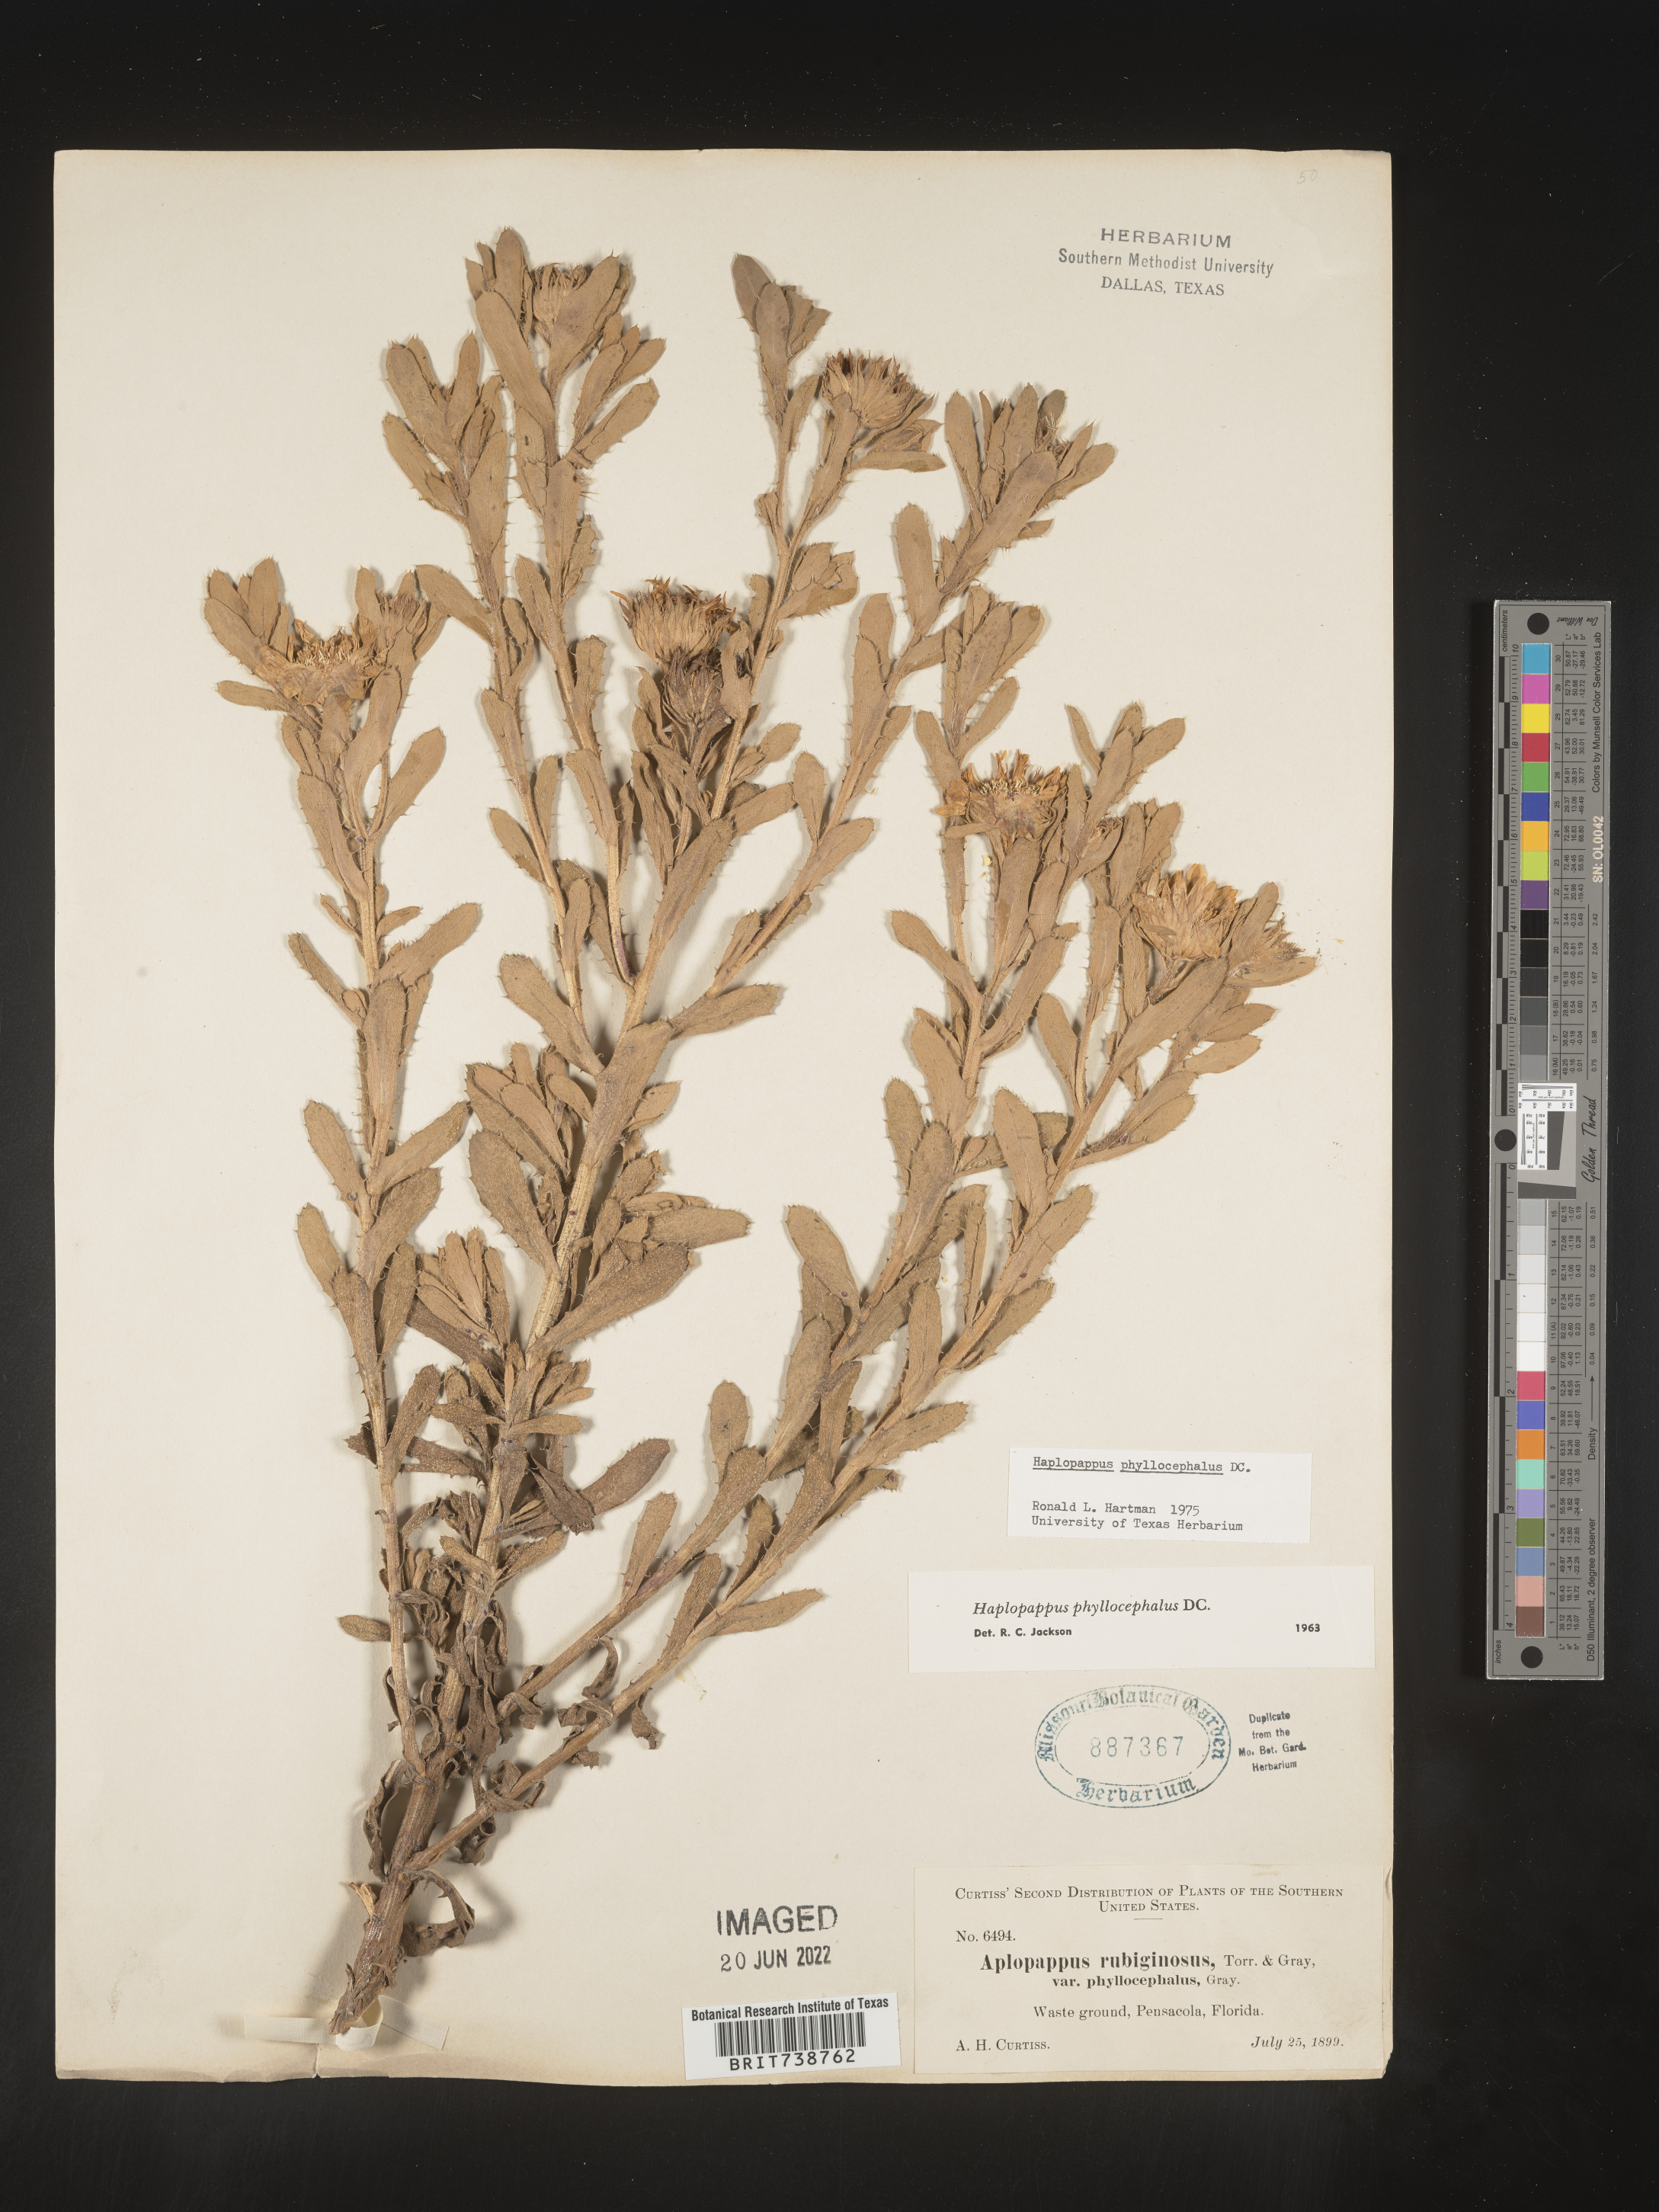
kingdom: Plantae
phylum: Tracheophyta
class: Magnoliopsida
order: Asterales
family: Asteraceae
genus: Rayjacksonia
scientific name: Rayjacksonia phyllocephala
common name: Gulf coast camphor daisy
